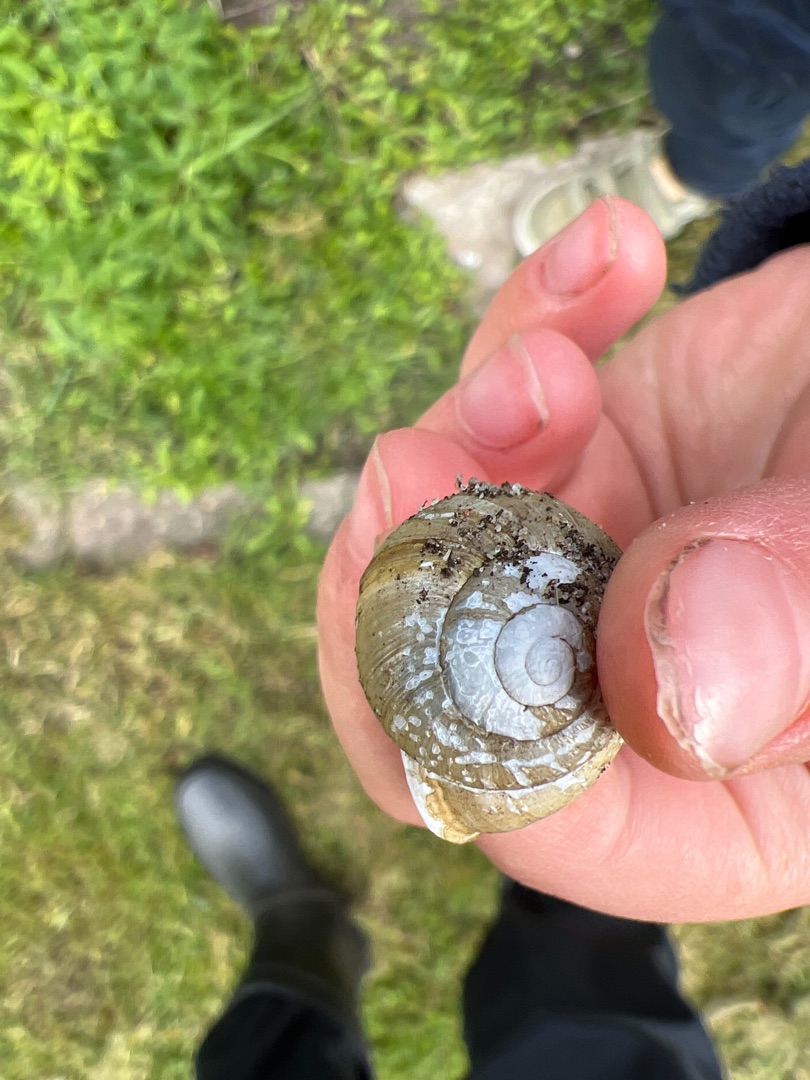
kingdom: Animalia
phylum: Mollusca
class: Gastropoda
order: Stylommatophora
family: Helicidae
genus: Helix
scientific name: Helix pomatia
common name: Vinbjergsnegl
